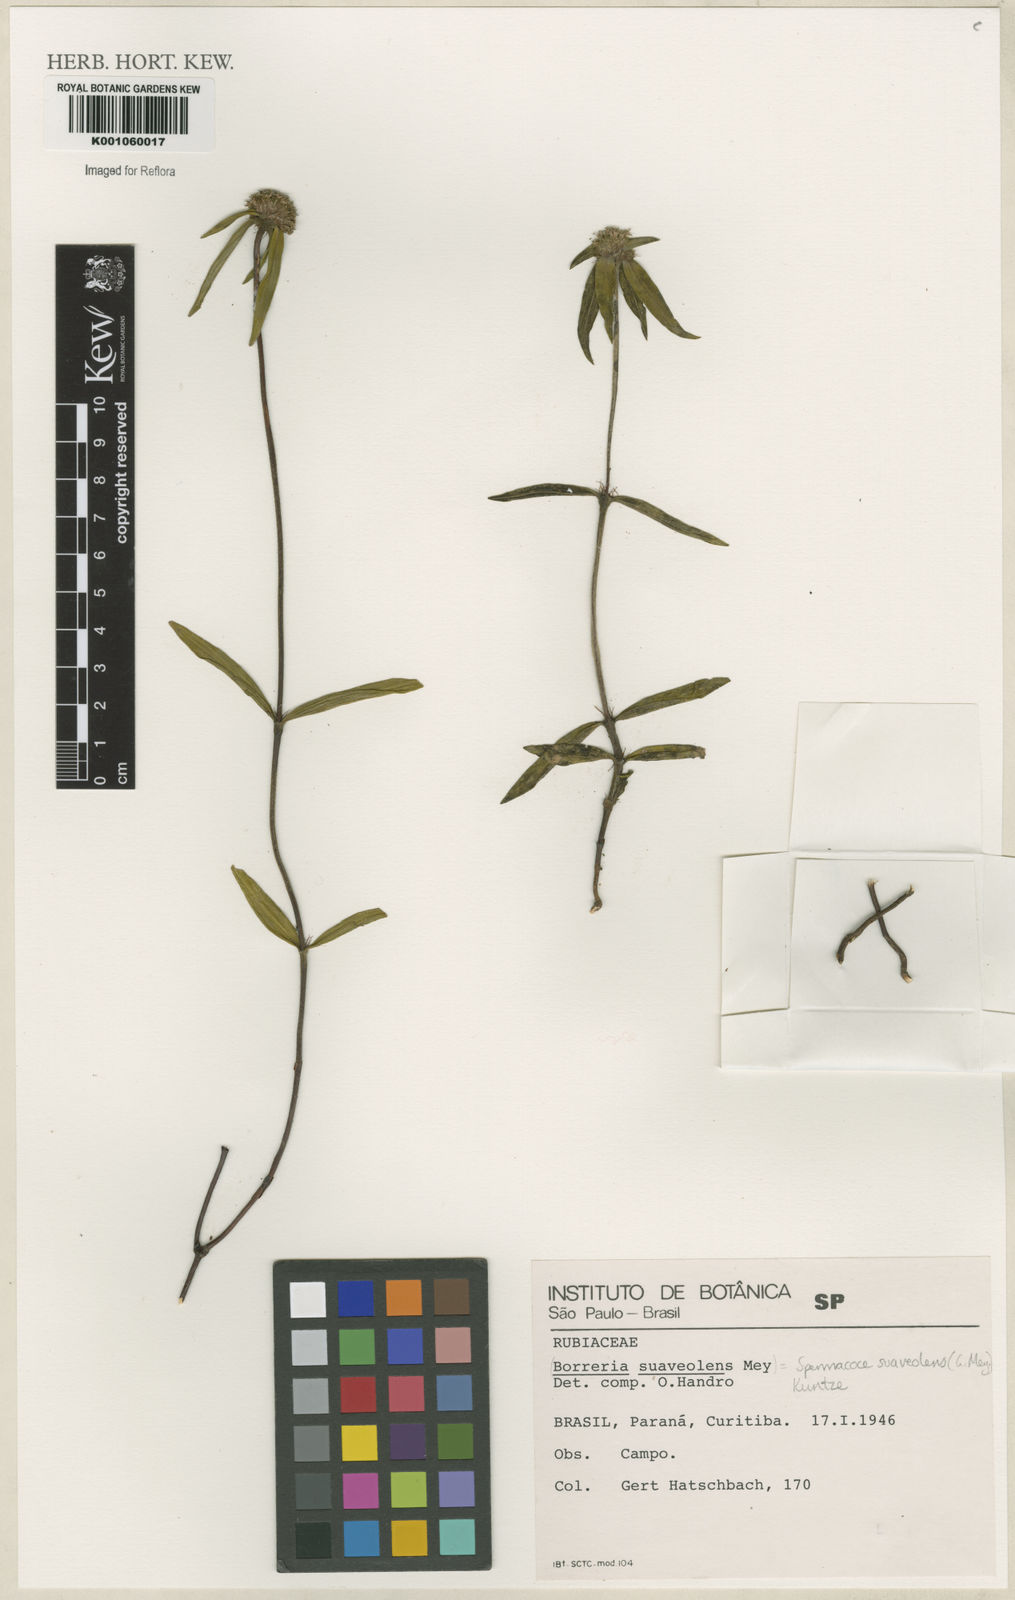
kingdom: Plantae
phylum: Tracheophyta
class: Magnoliopsida
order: Gentianales
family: Rubiaceae
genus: Spermacoce
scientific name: Spermacoce suaveolens
